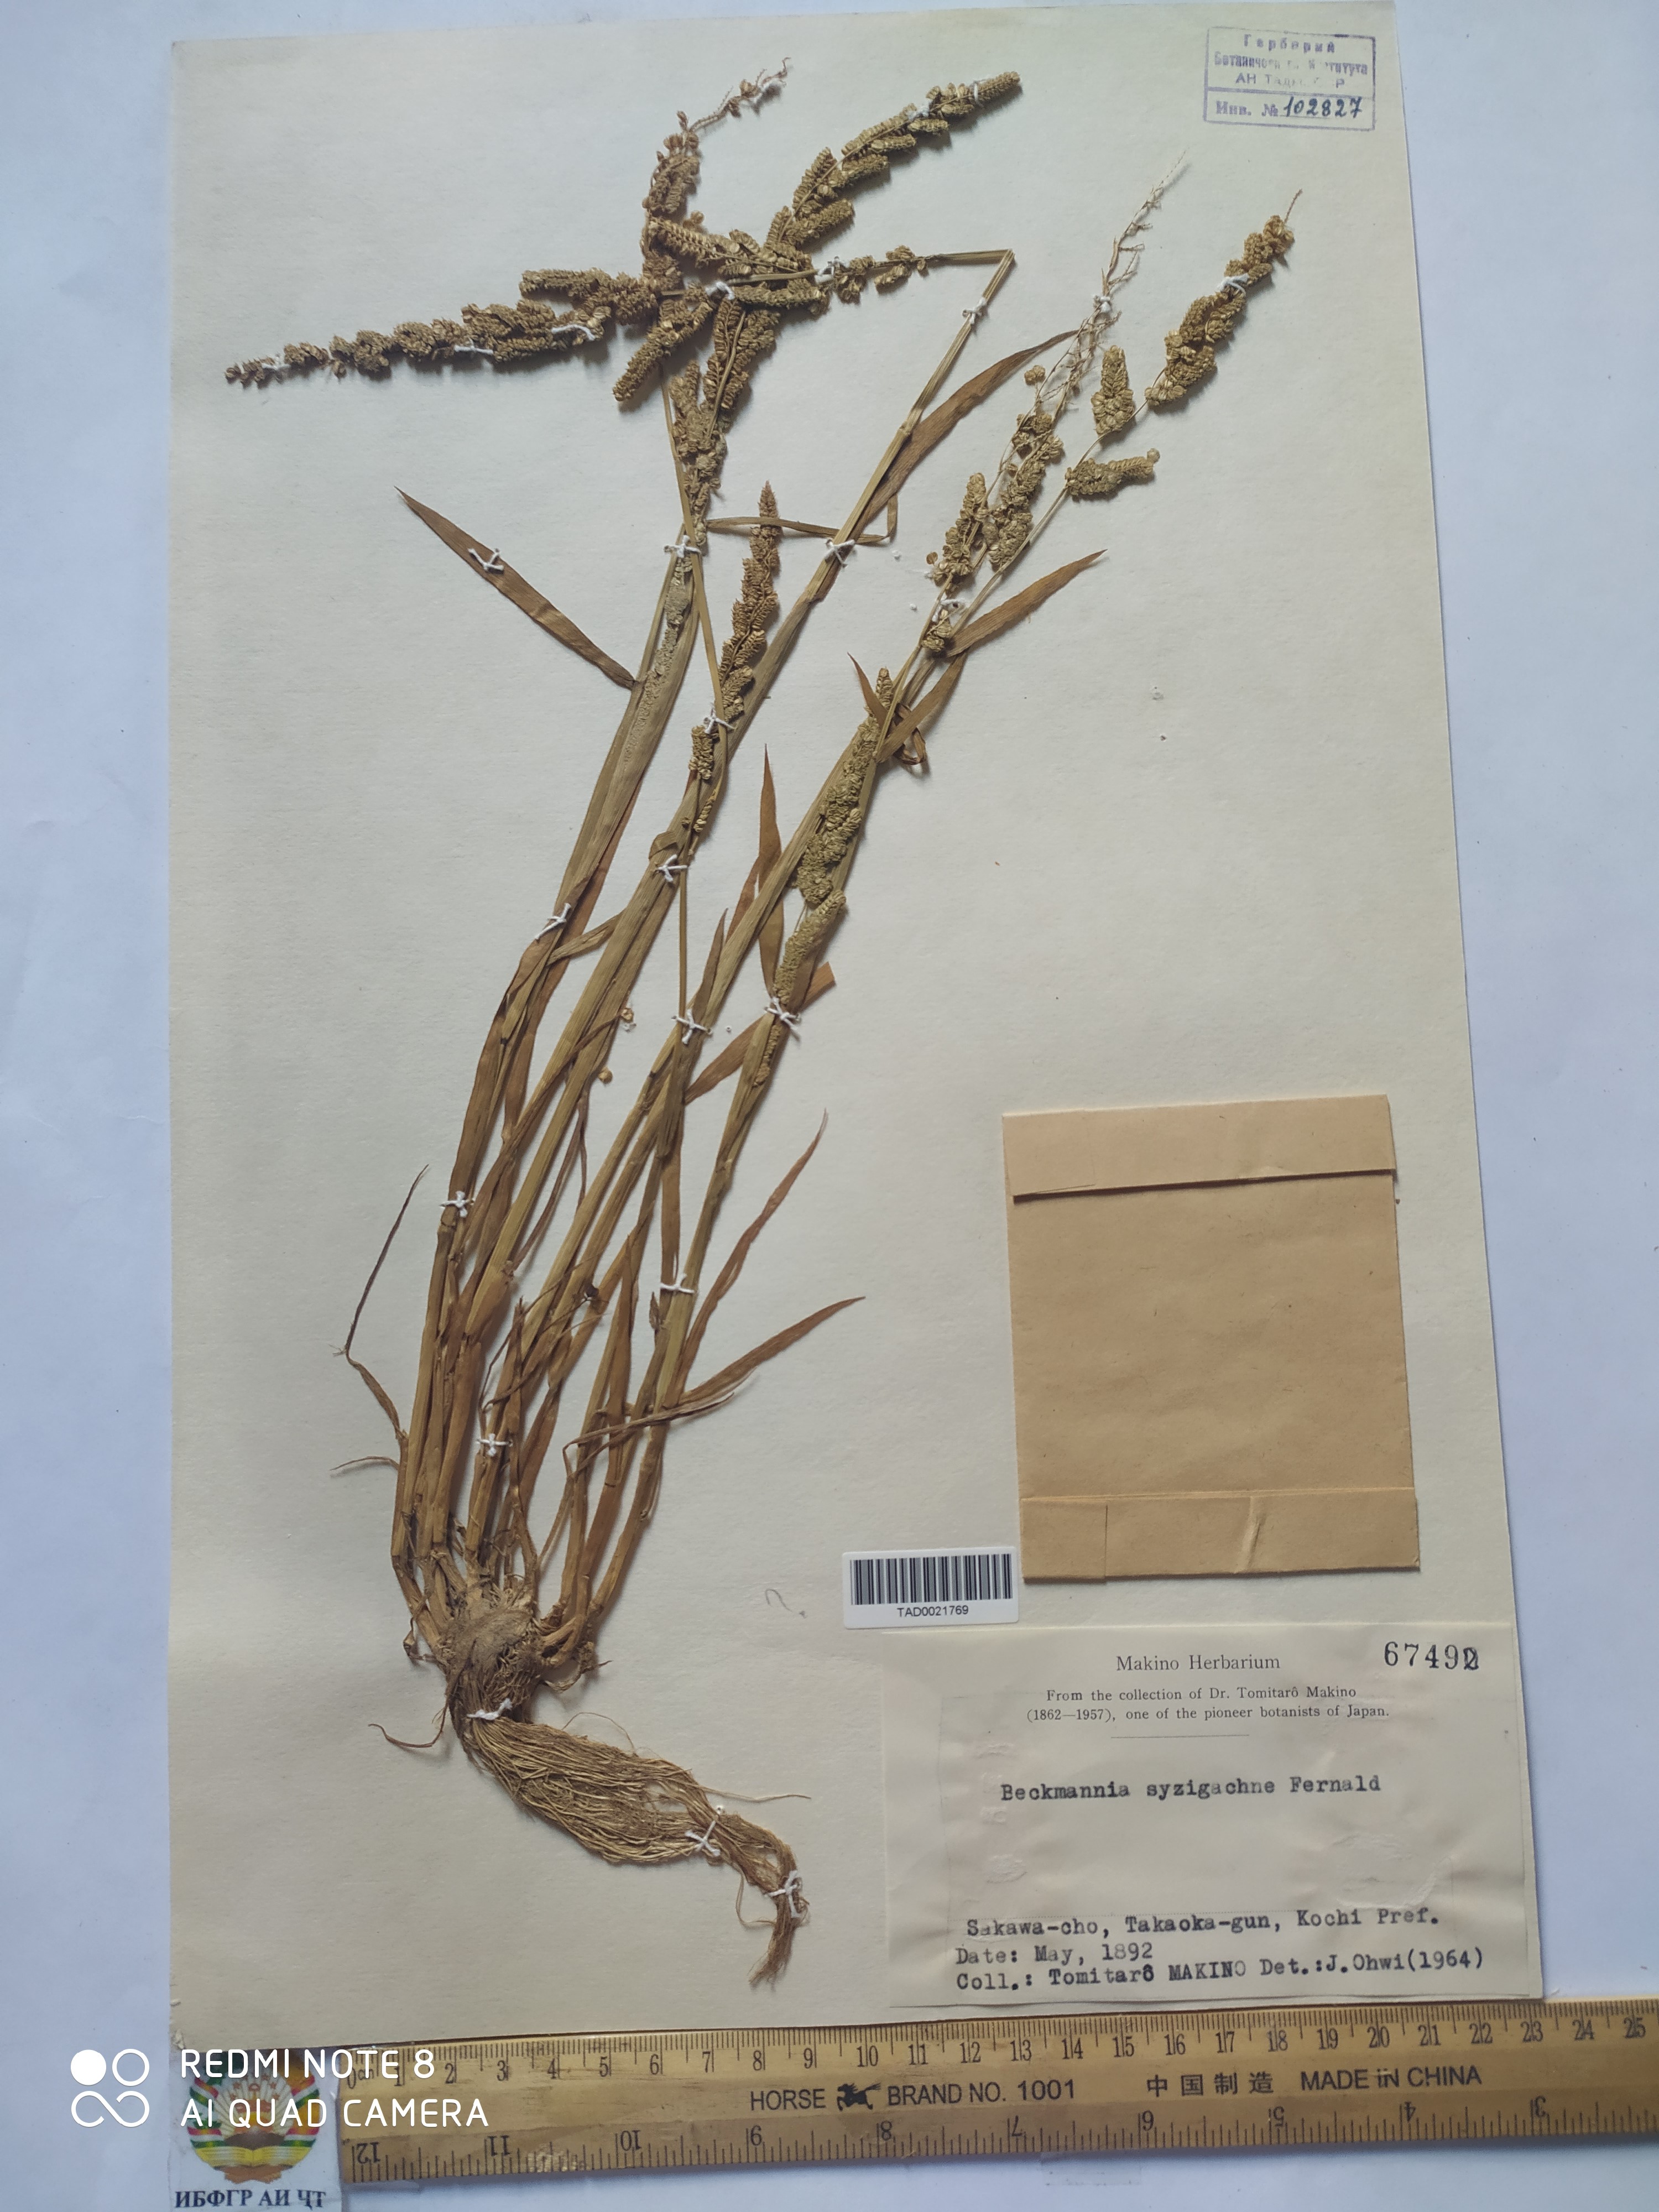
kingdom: Plantae
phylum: Tracheophyta
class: Liliopsida
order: Poales
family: Poaceae
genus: Beckmannia
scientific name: Beckmannia syzigachne
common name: American slough-grass
